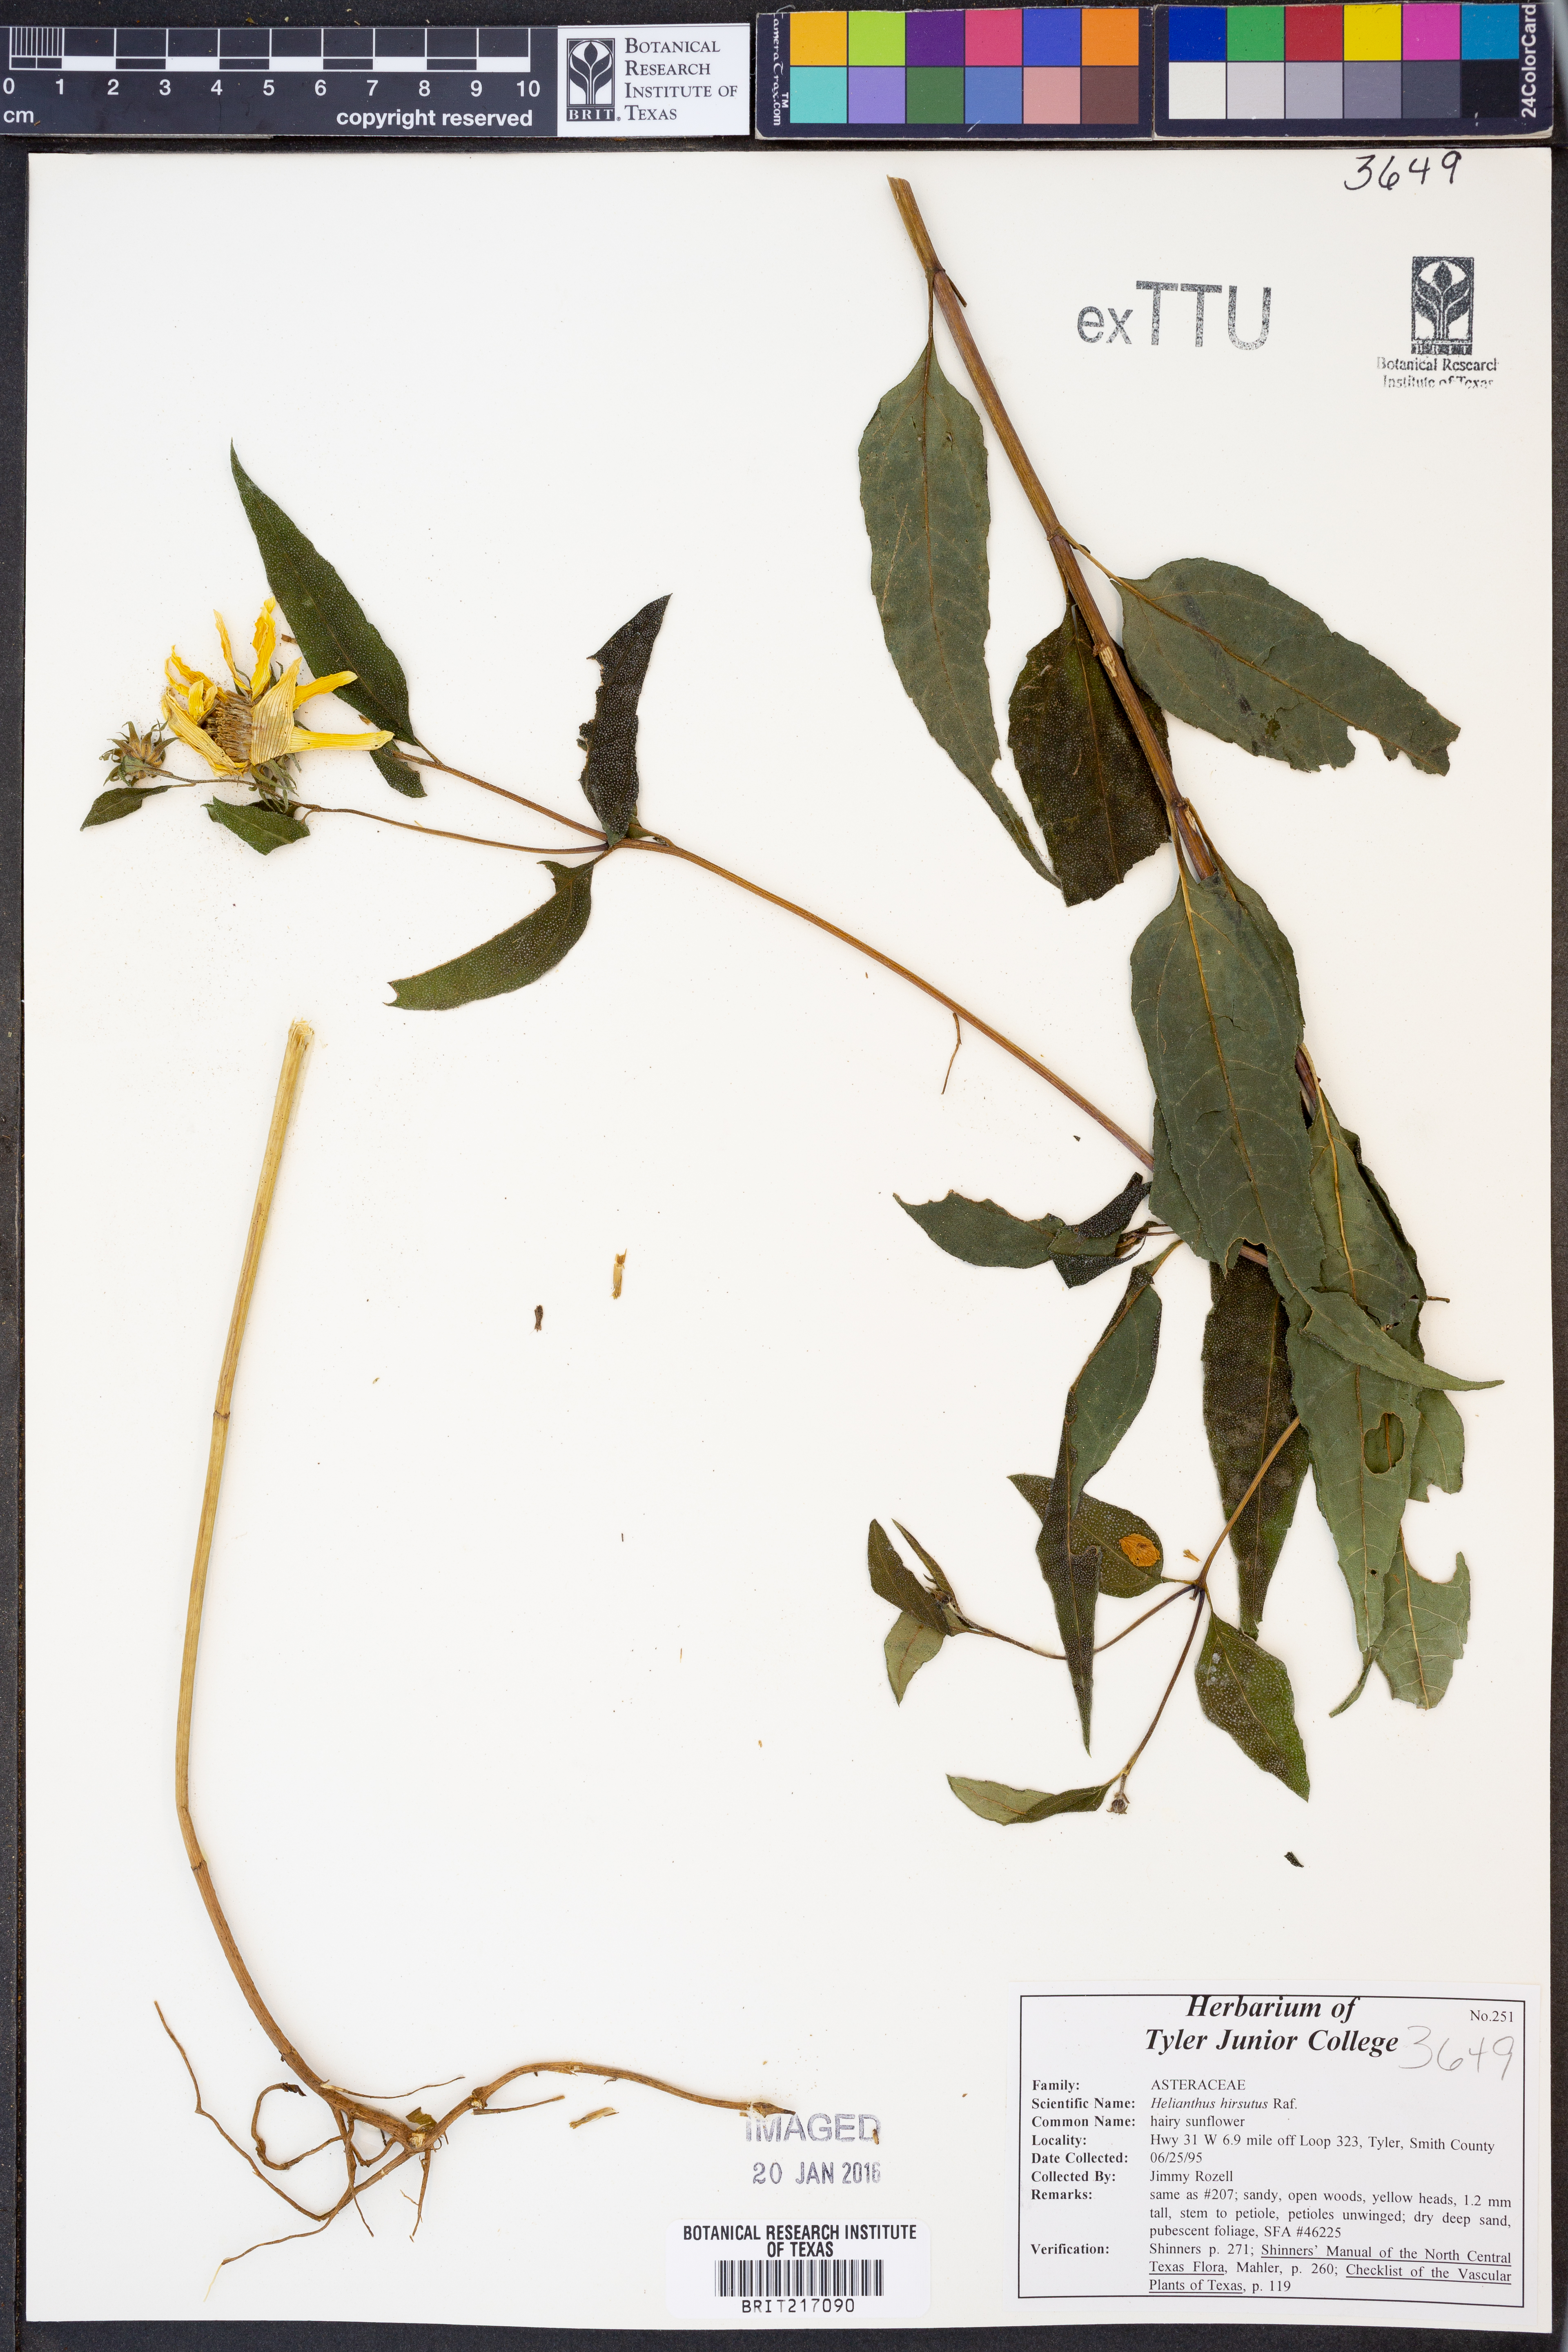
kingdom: Plantae
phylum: Tracheophyta
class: Magnoliopsida
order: Asterales
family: Asteraceae
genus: Helianthus
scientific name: Helianthus hirsutus
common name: Hairy sunflower
